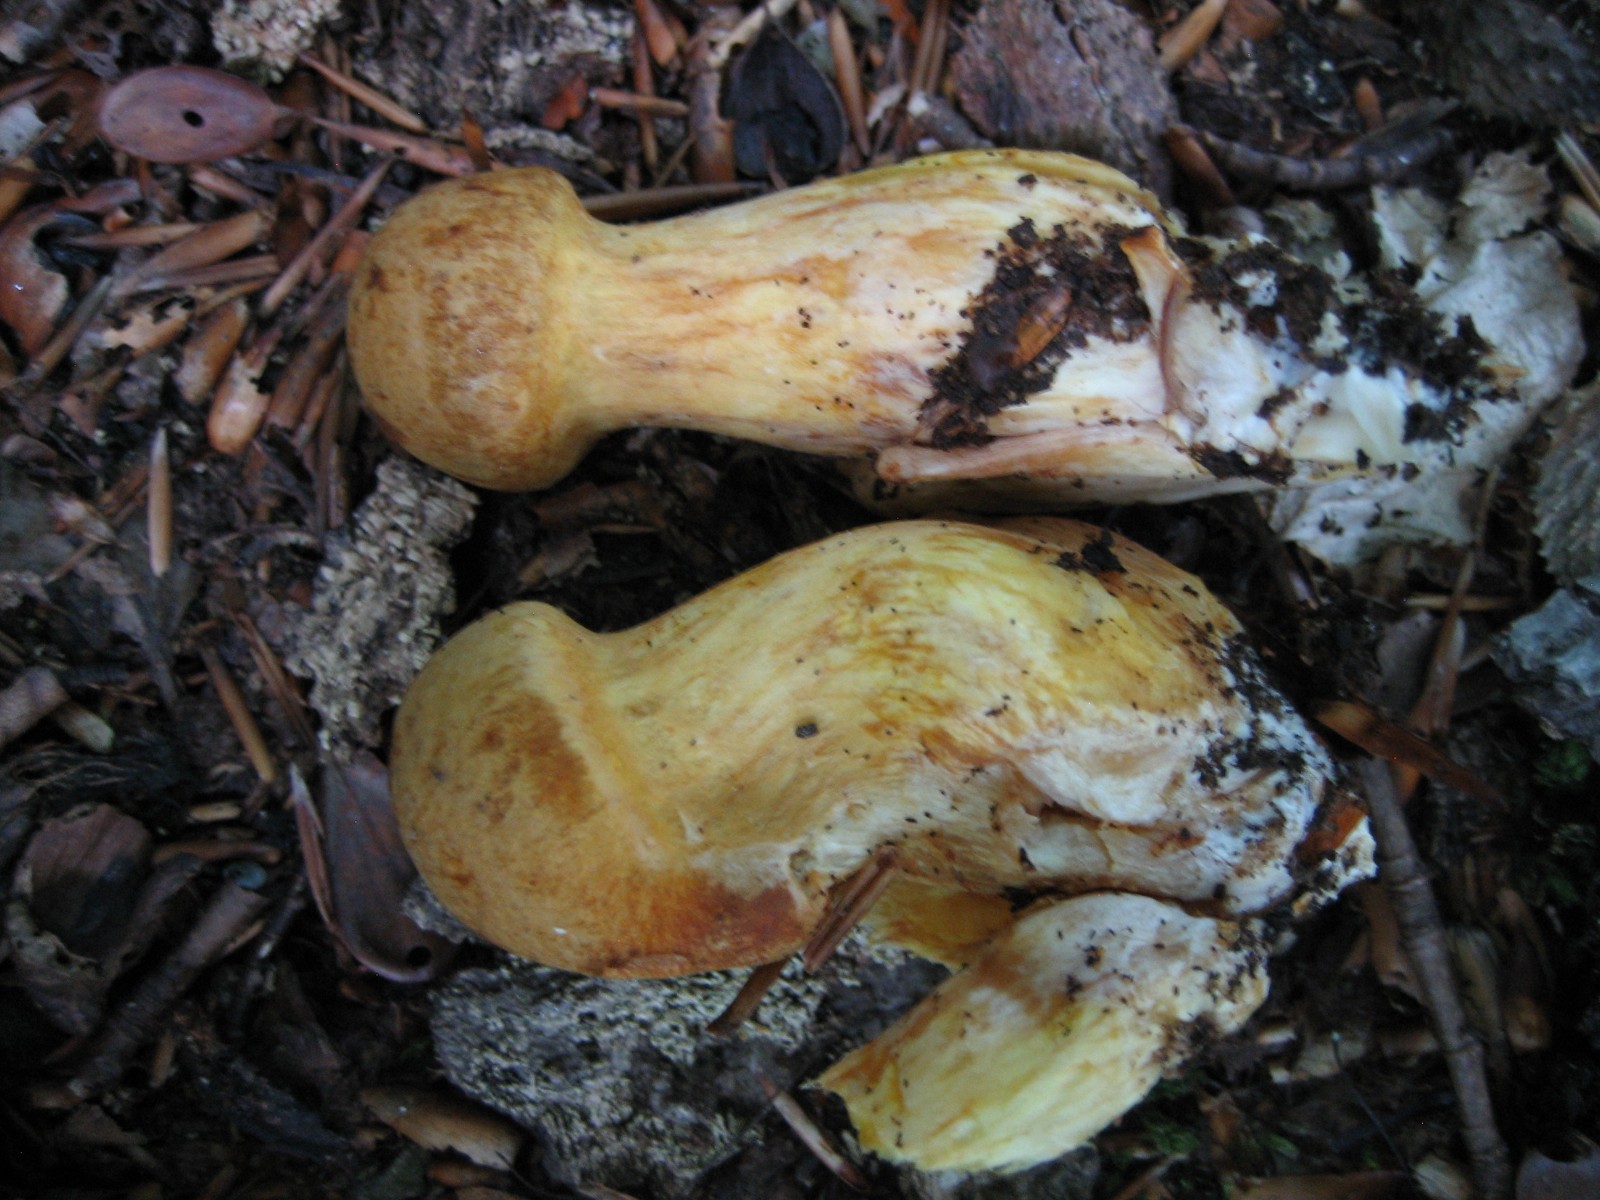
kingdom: Fungi
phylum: Basidiomycota
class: Agaricomycetes
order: Agaricales
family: Hymenogastraceae
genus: Gymnopilus
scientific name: Gymnopilus spectabilis
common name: fibret flammehat
